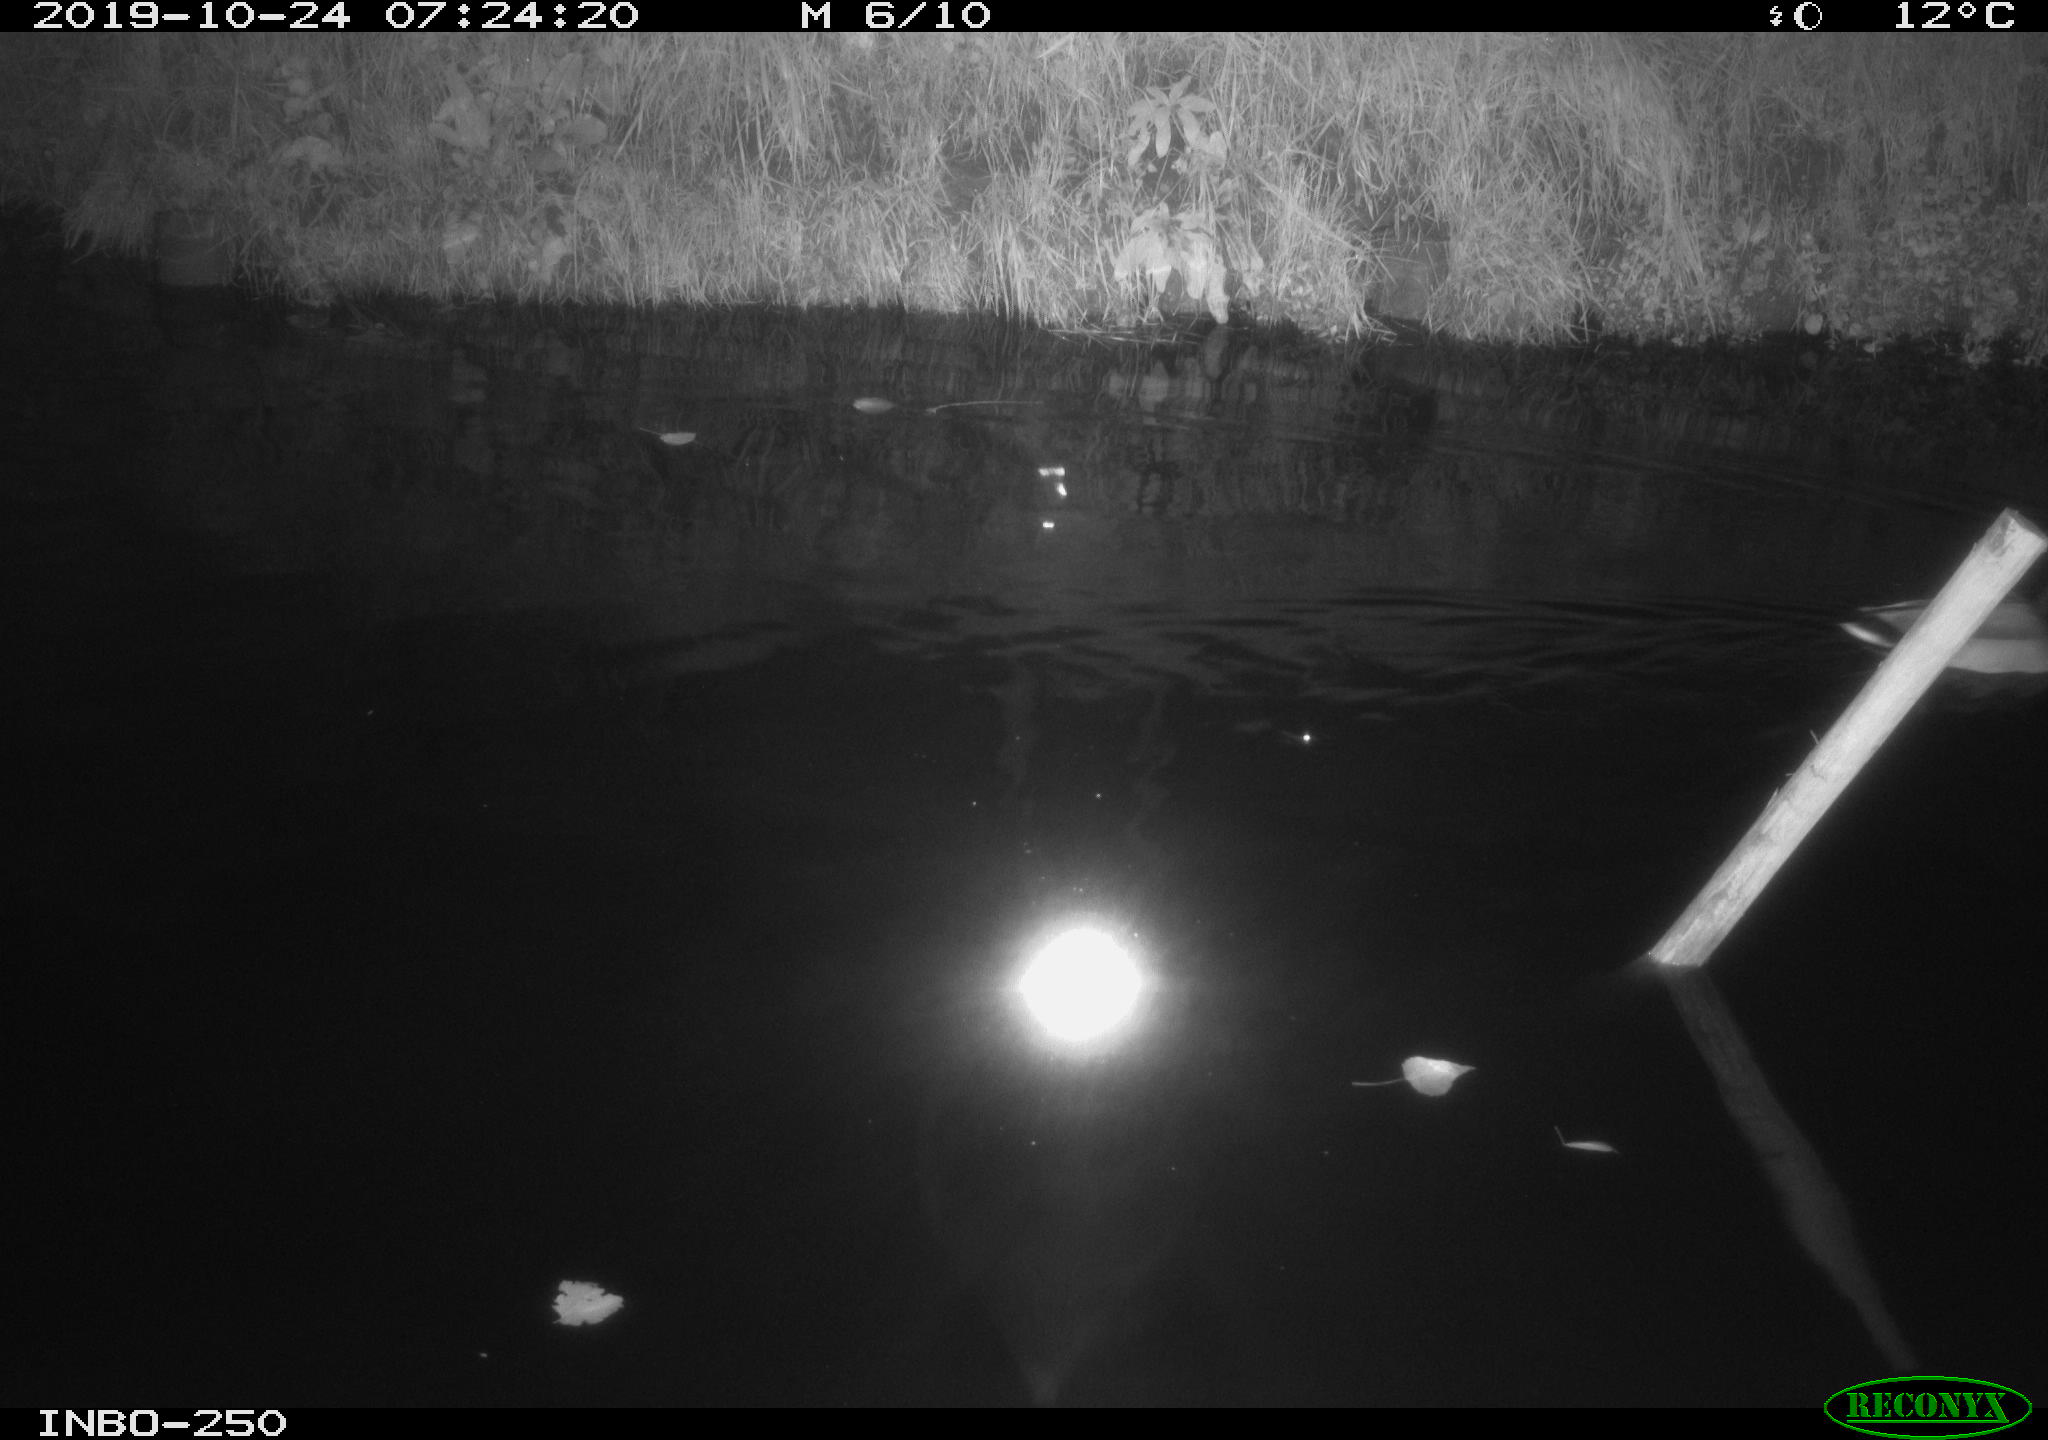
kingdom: Animalia
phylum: Chordata
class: Aves
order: Anseriformes
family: Anatidae
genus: Anas
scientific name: Anas platyrhynchos
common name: Mallard
